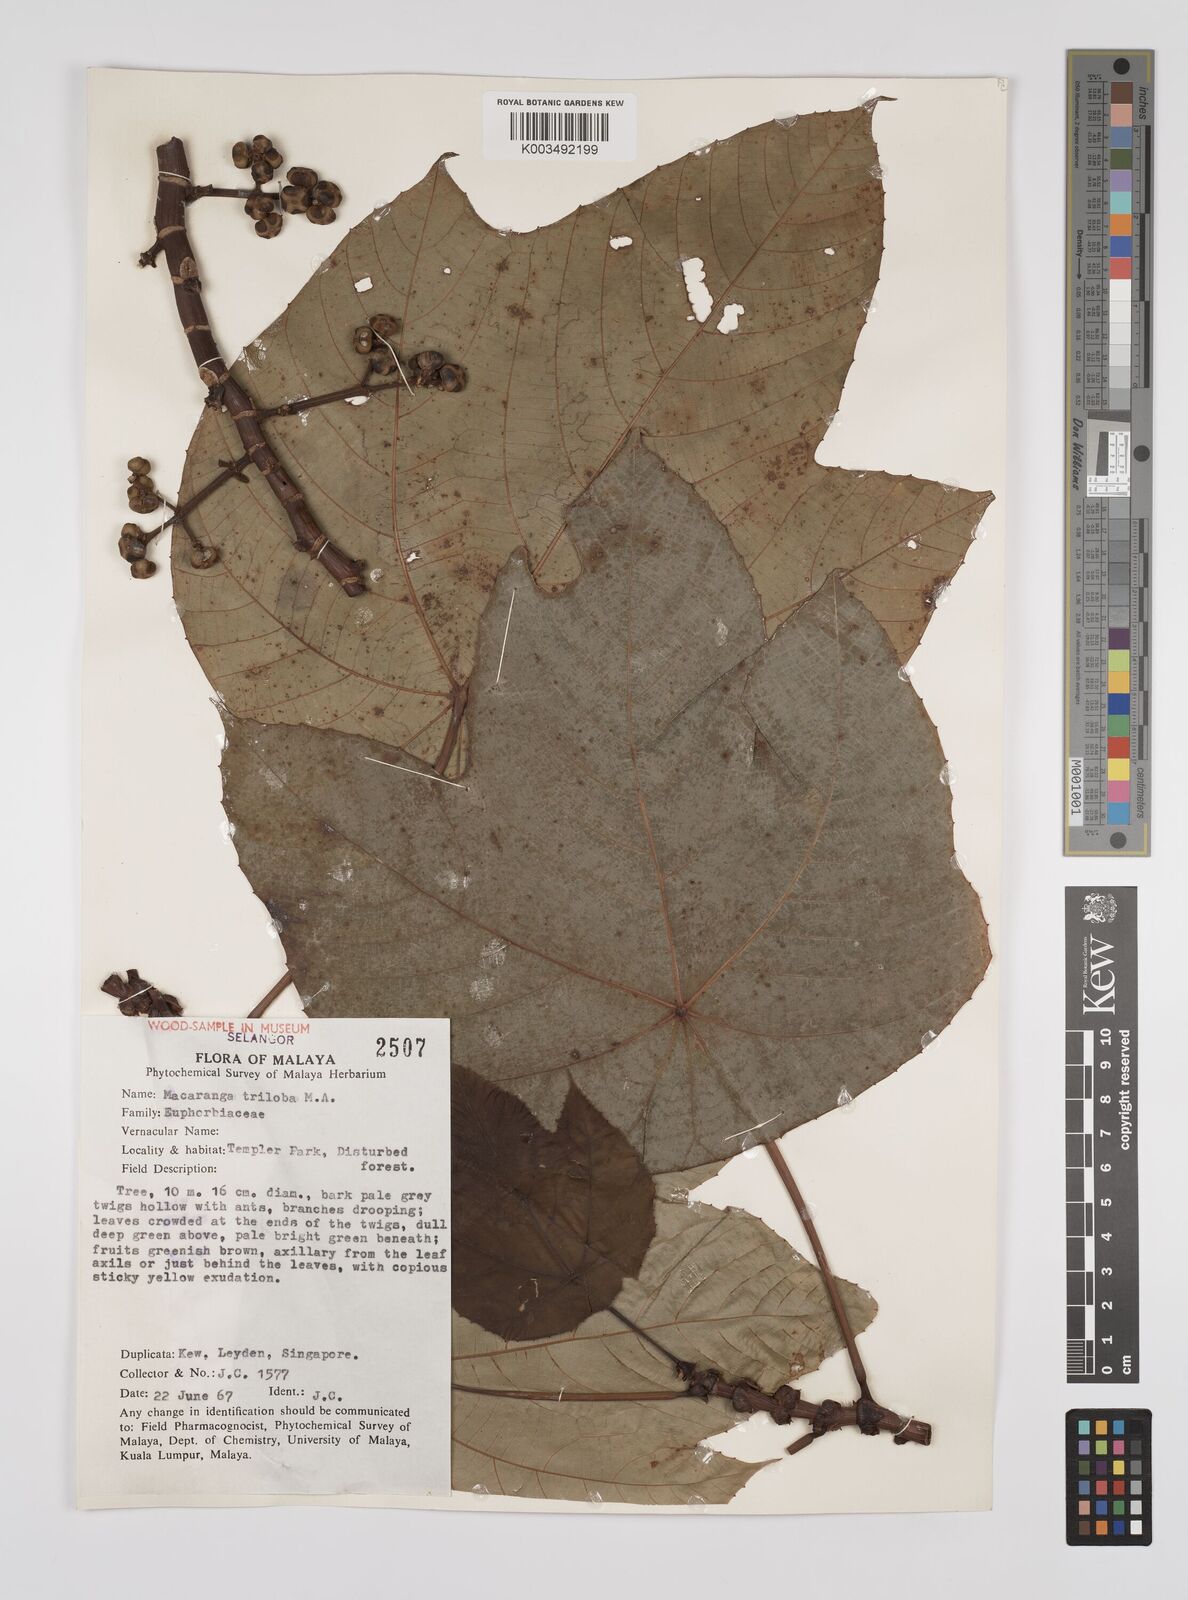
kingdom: Plantae
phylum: Tracheophyta
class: Magnoliopsida
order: Malpighiales
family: Euphorbiaceae
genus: Macaranga
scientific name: Macaranga triloba
